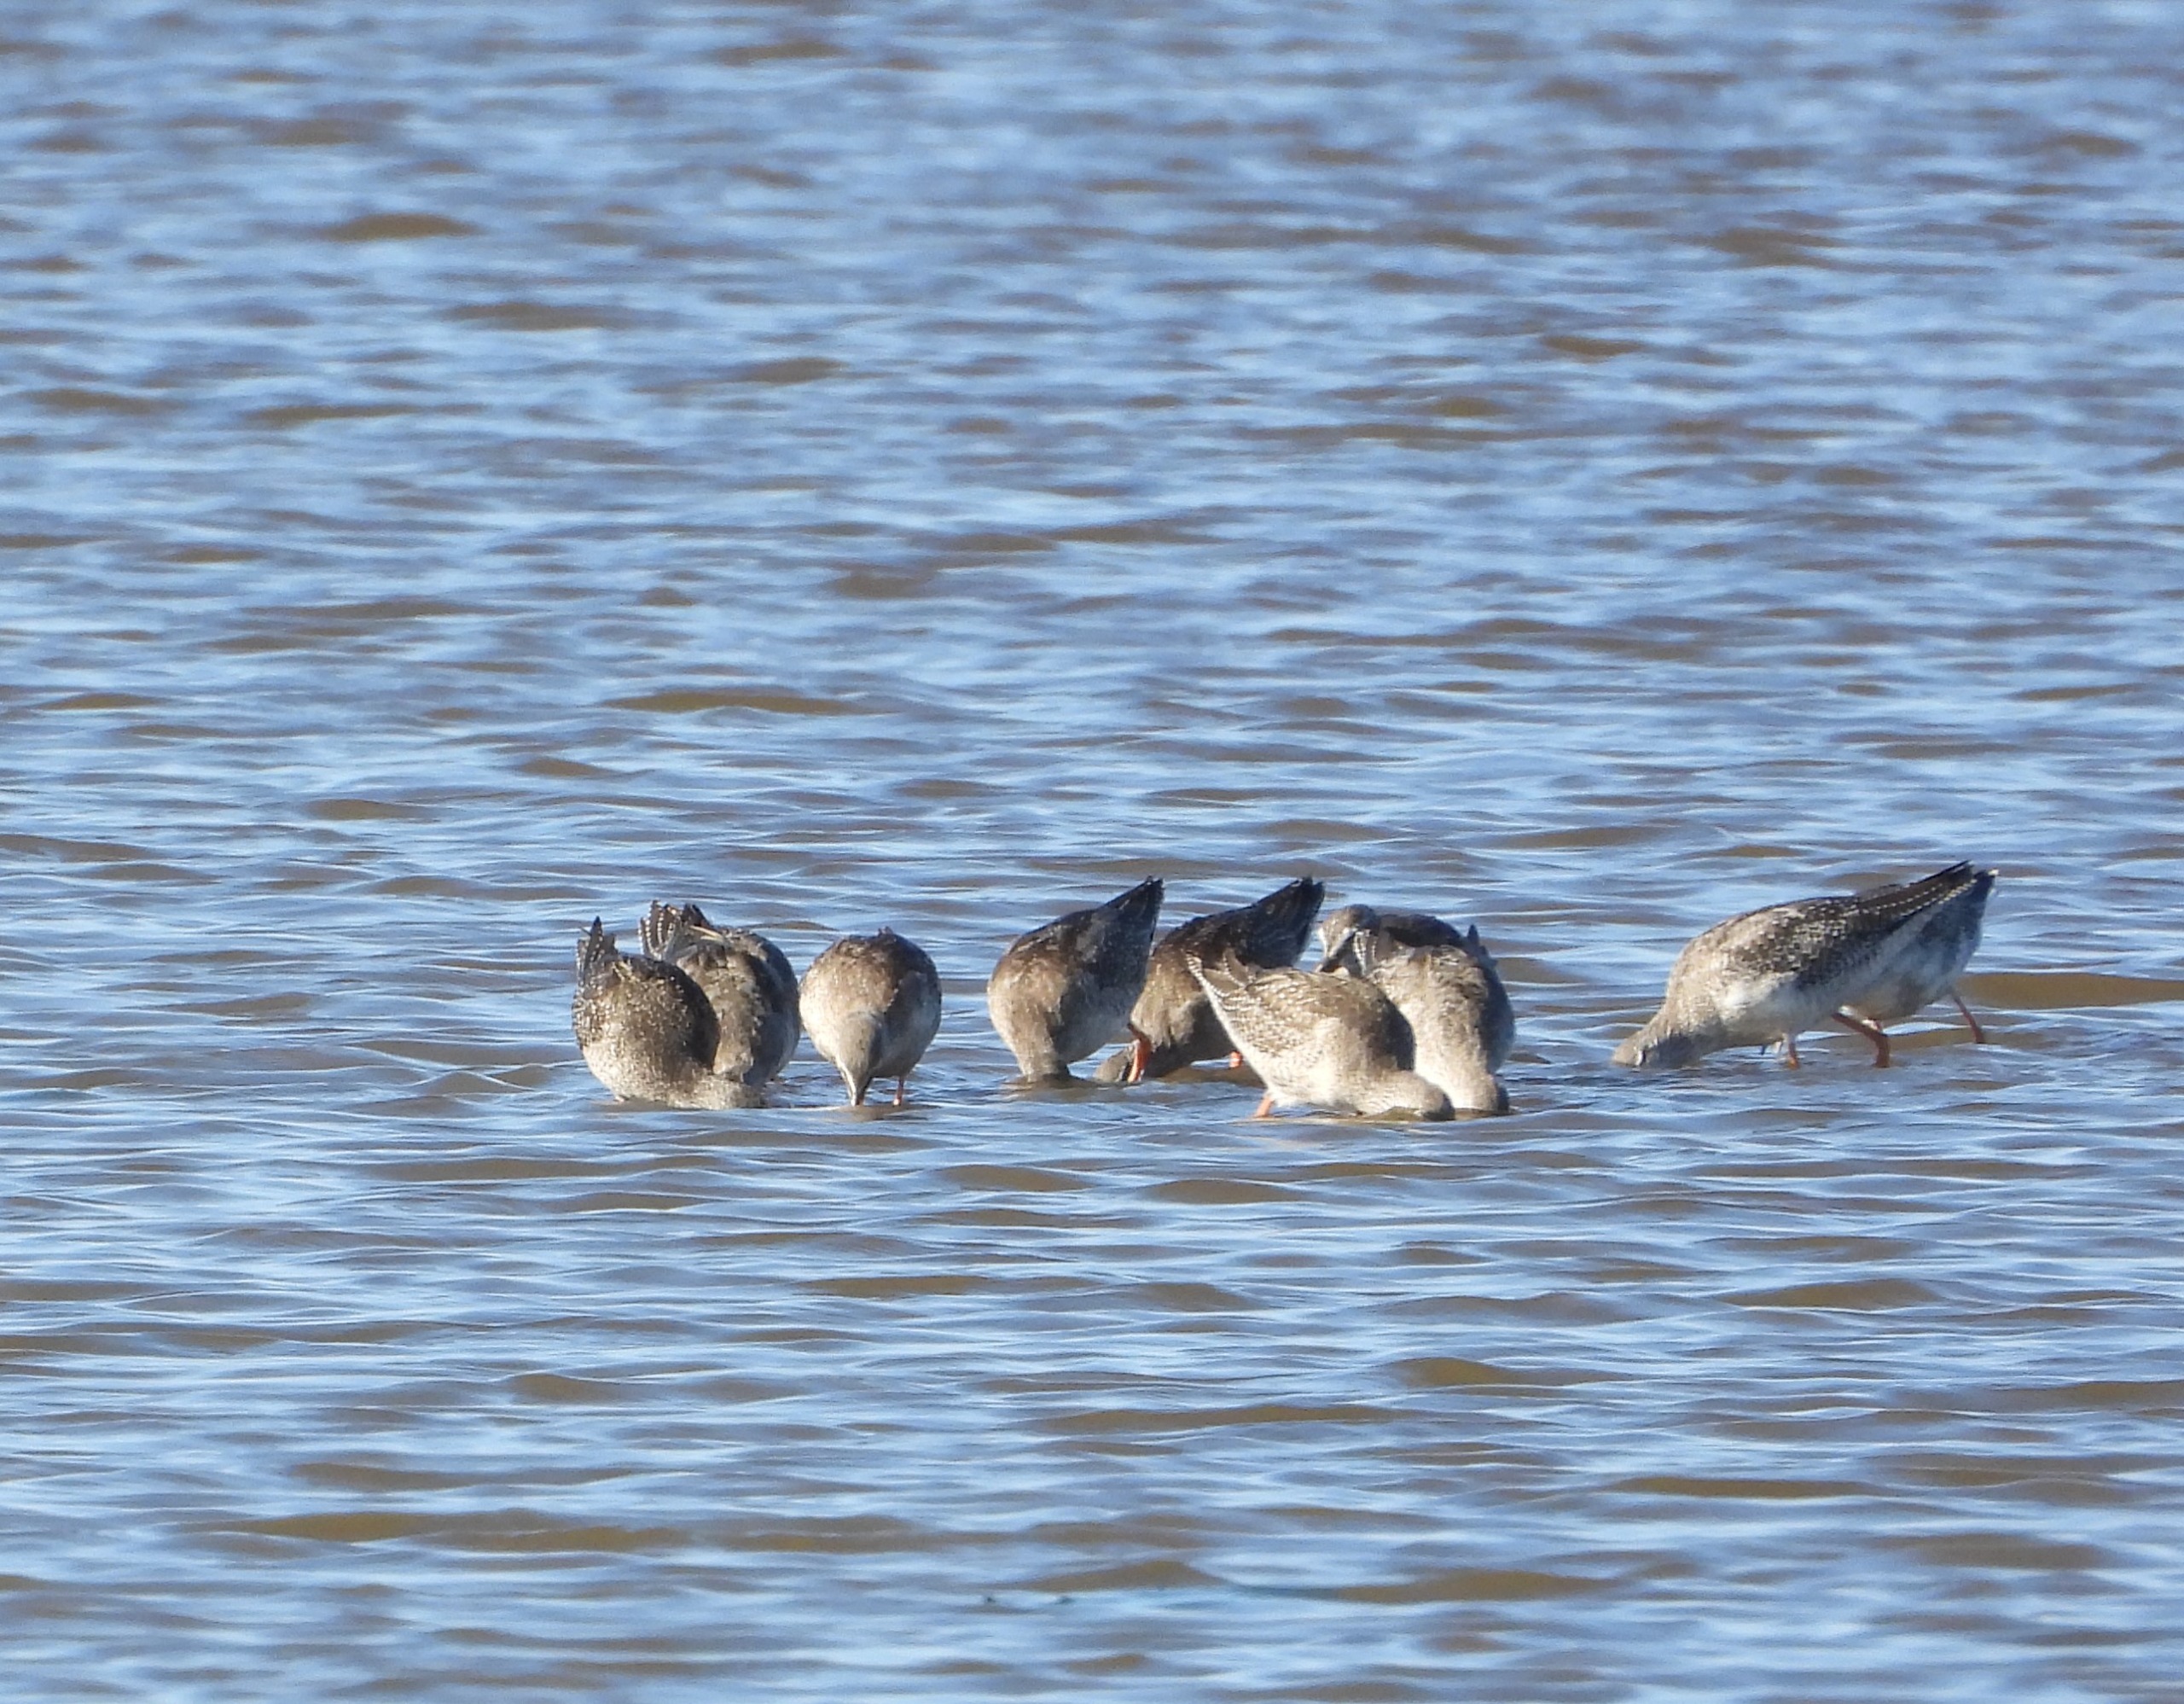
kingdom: Animalia
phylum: Chordata
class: Aves
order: Charadriiformes
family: Scolopacidae
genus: Tringa
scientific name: Tringa erythropus
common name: Sortklire
